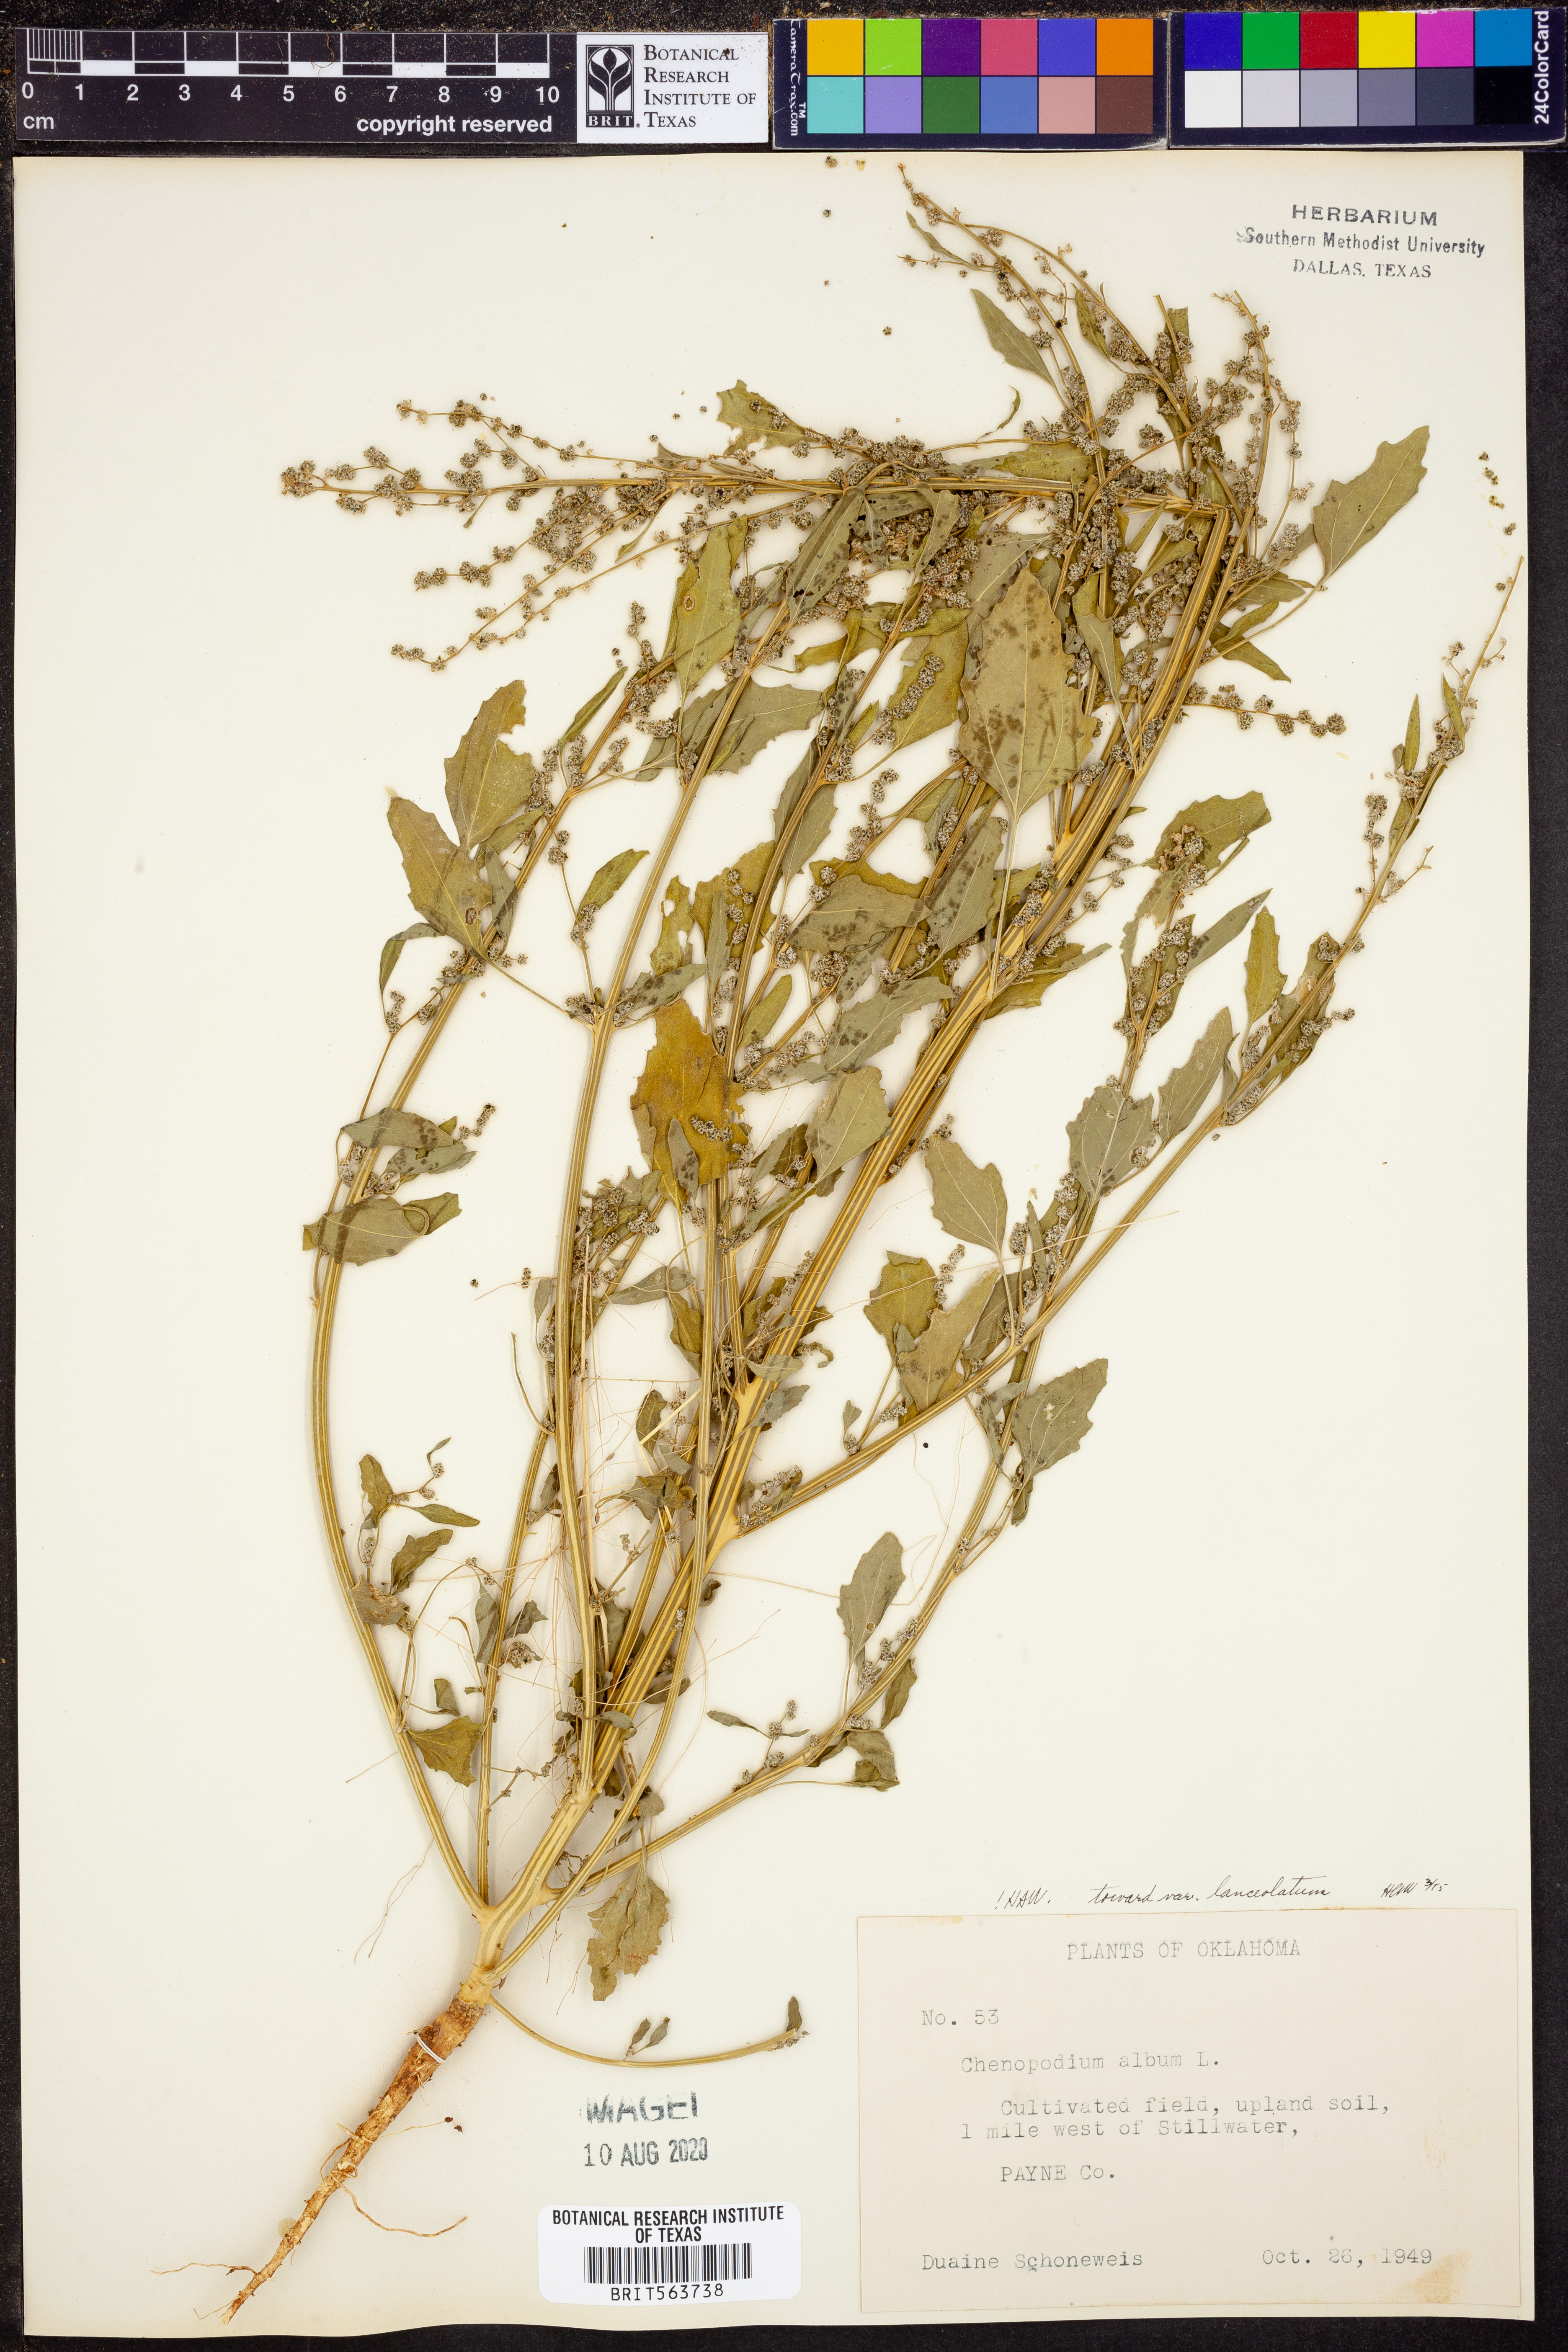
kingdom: Plantae
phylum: Tracheophyta
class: Magnoliopsida
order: Caryophyllales
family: Amaranthaceae
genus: Chenopodium
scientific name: Chenopodium album
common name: Fat-hen
